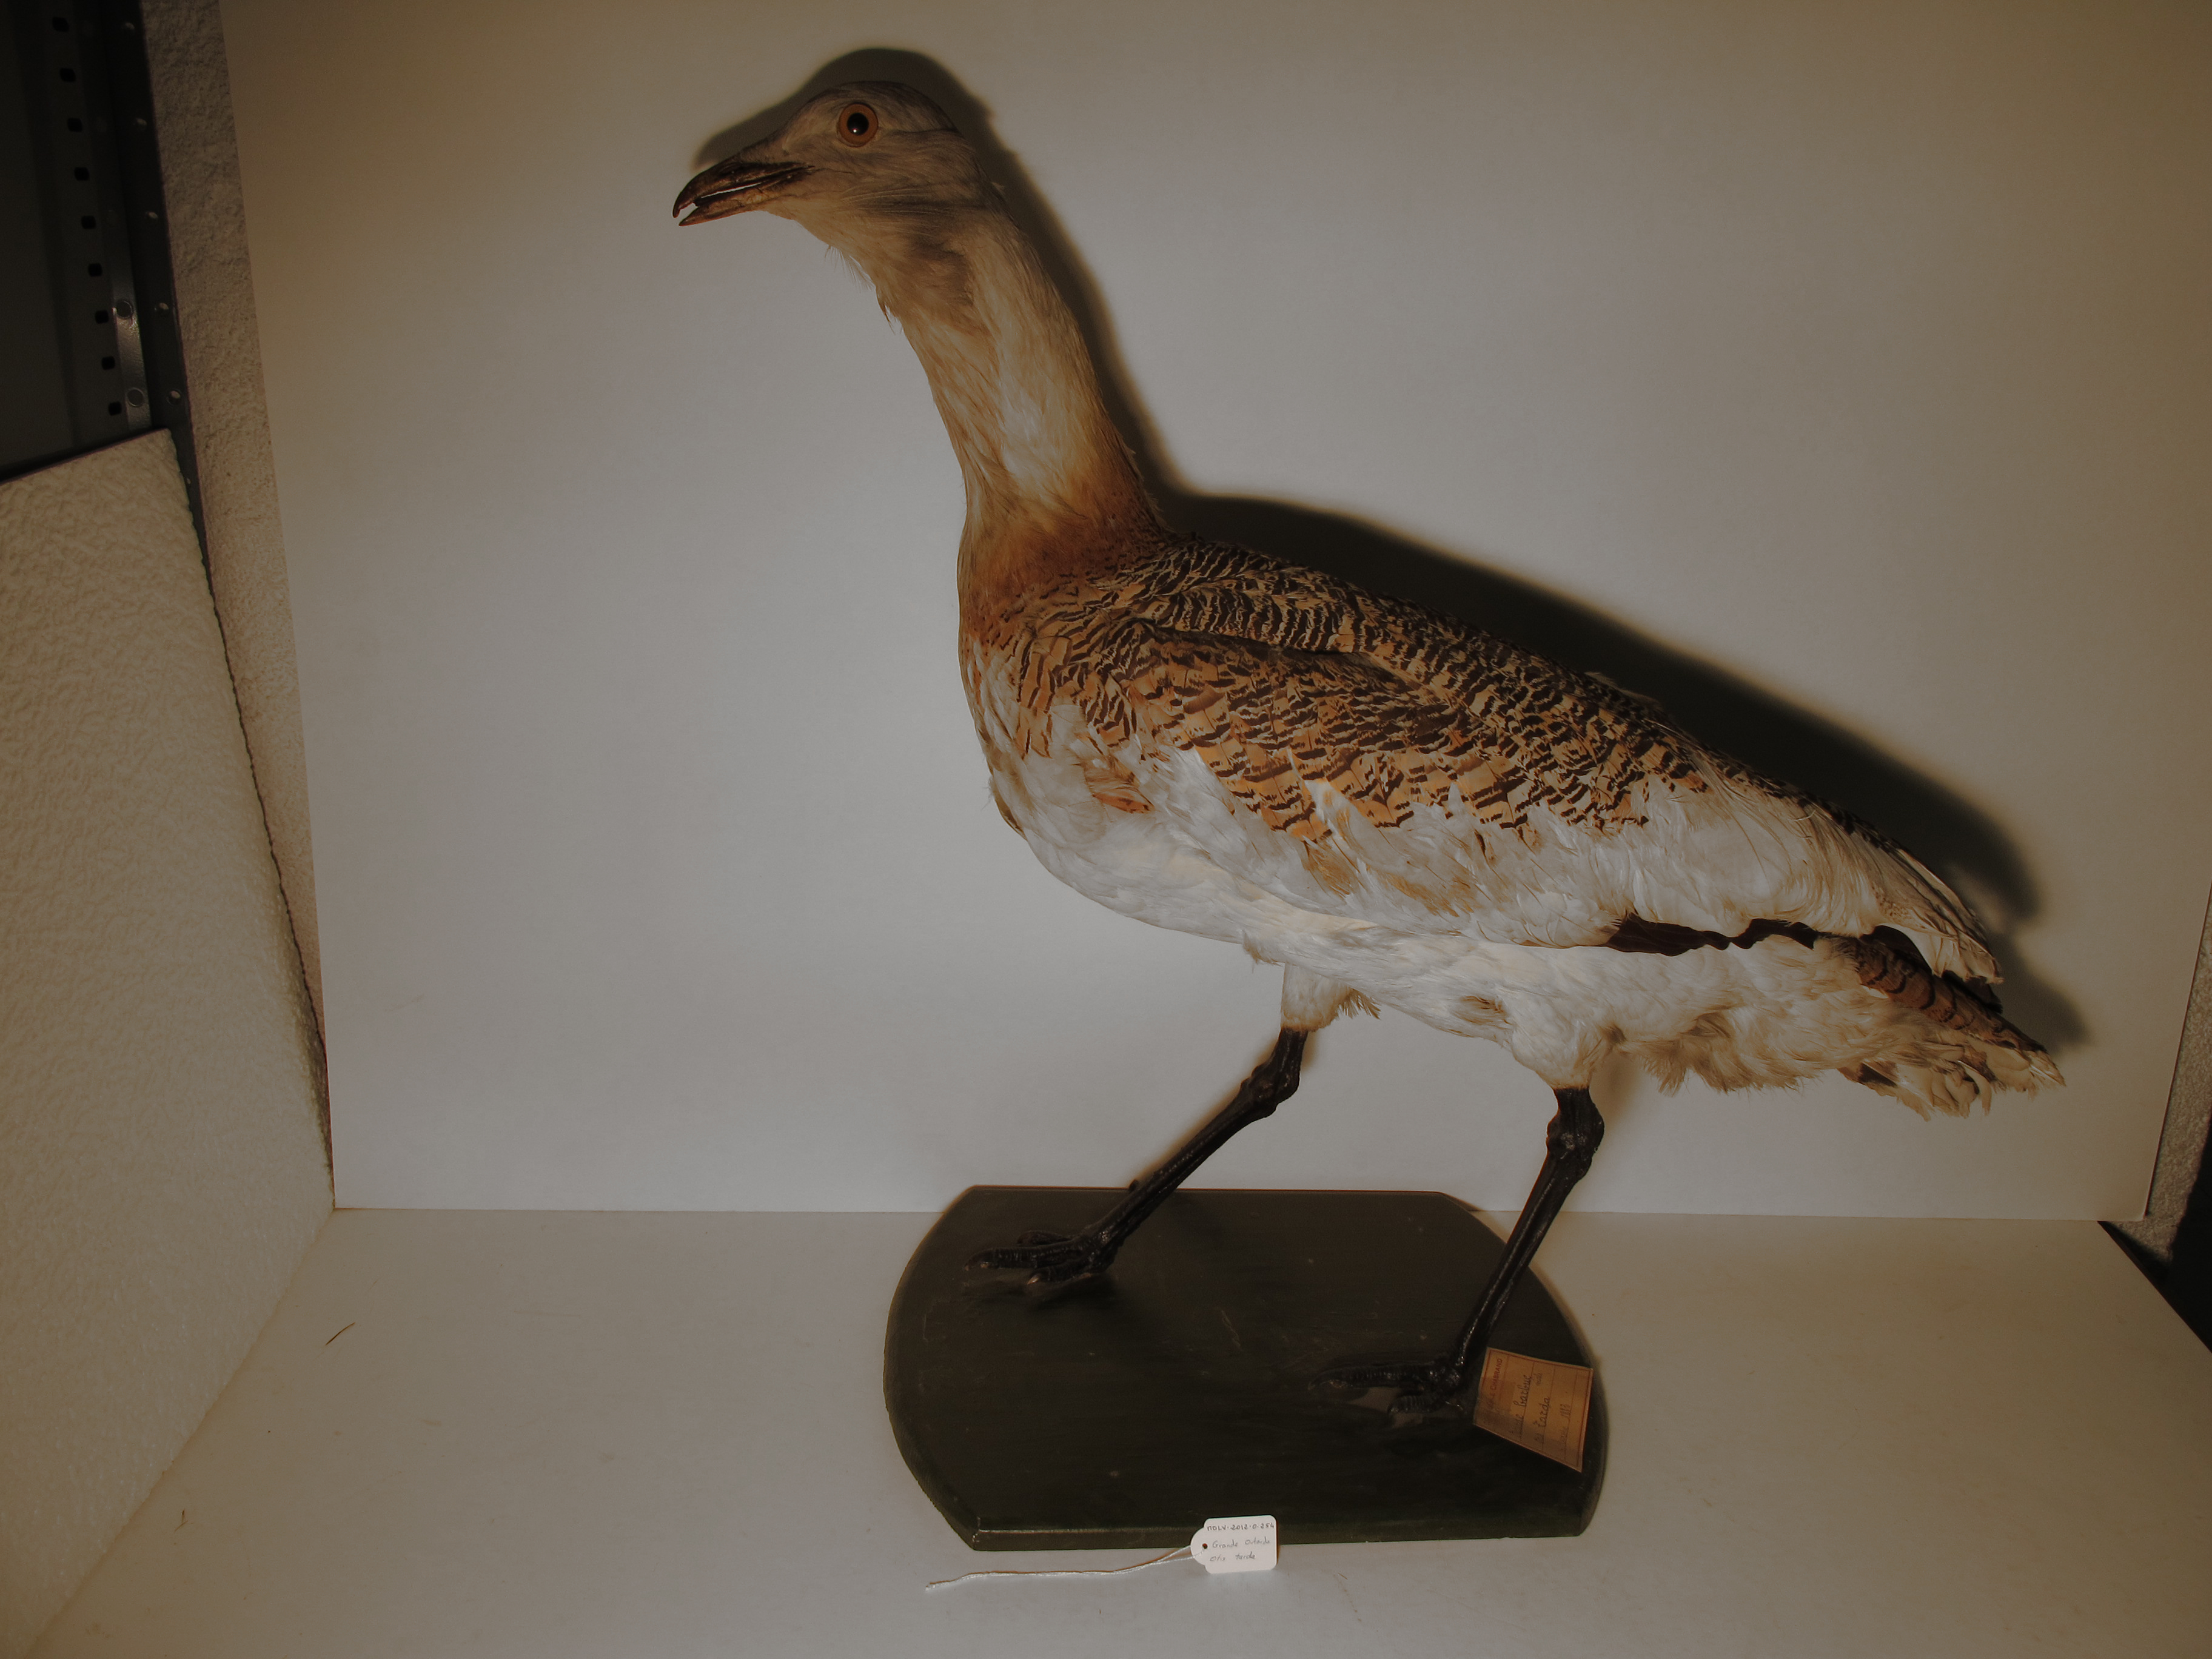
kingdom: Animalia
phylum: Chordata
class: Aves
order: Otidiformes
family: Otididae
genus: Otis
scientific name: Otis tarda
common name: Great Bustard
